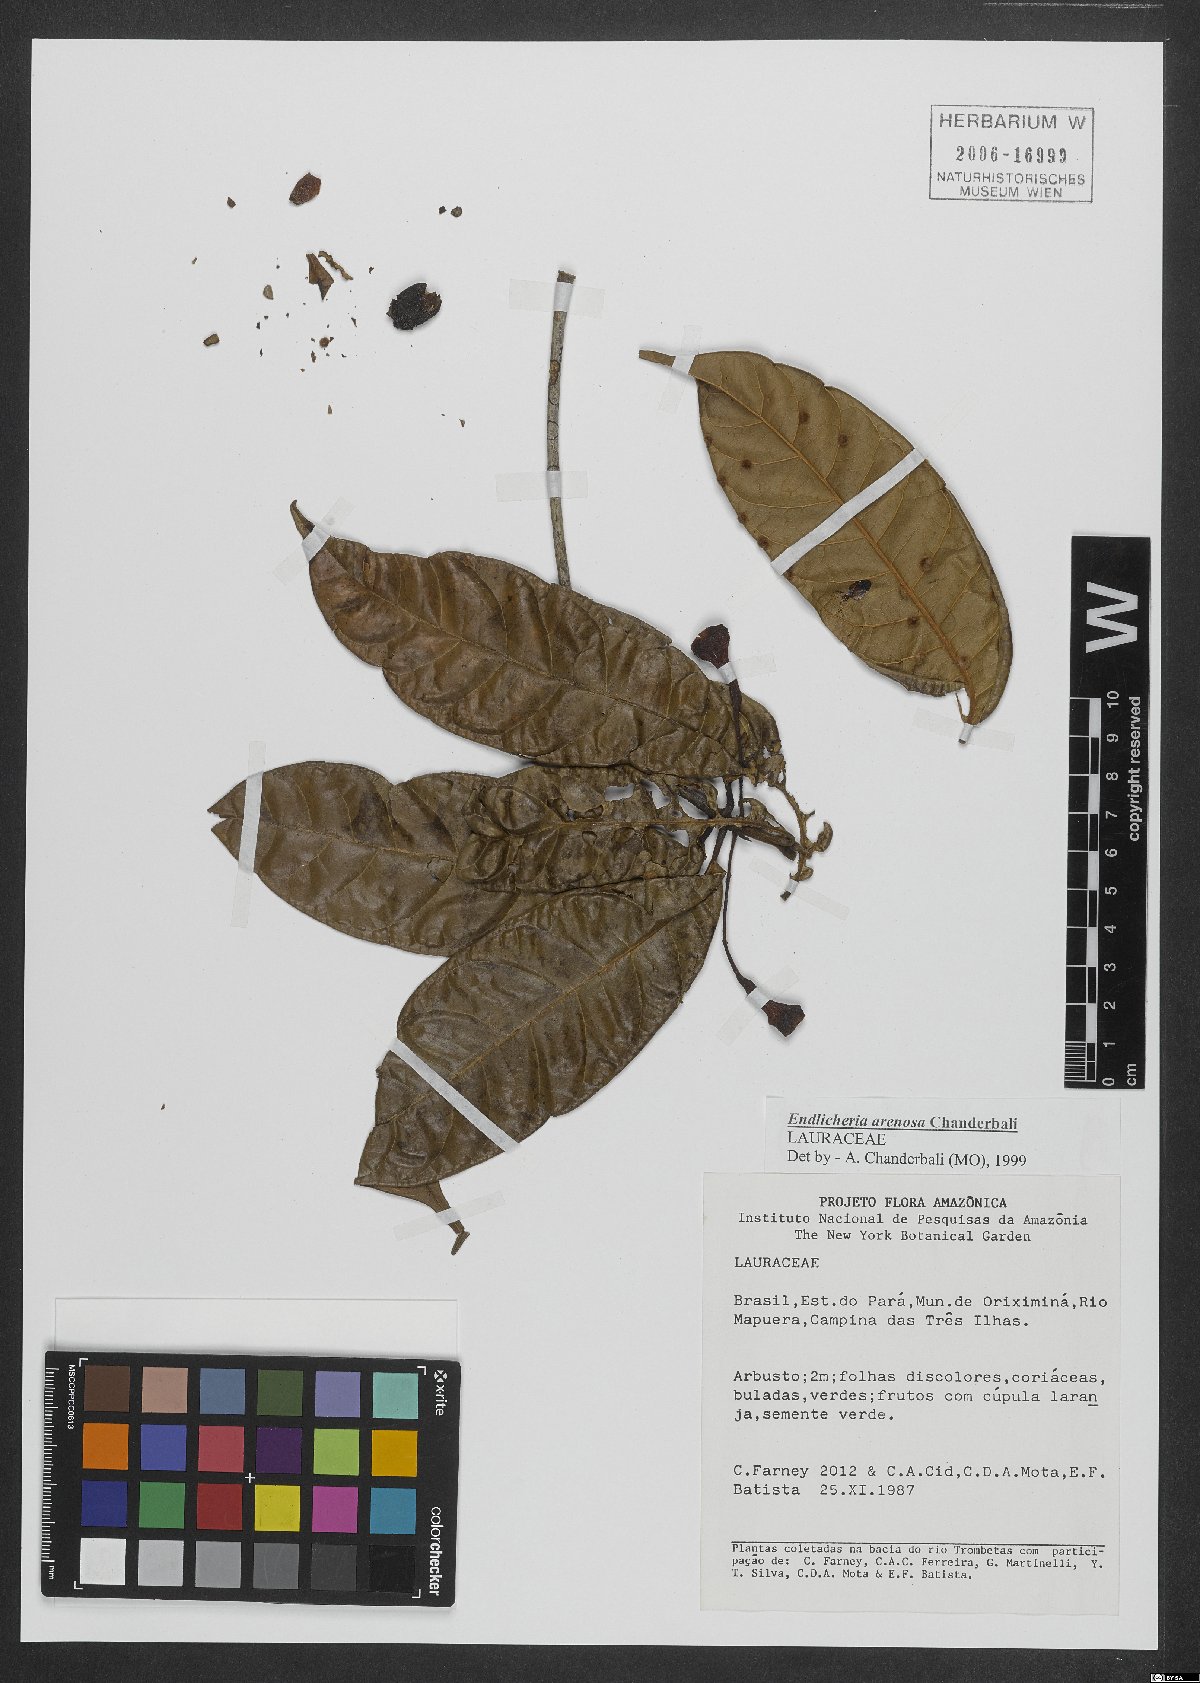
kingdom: Plantae
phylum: Tracheophyta
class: Magnoliopsida
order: Laurales
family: Lauraceae
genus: Endlicheria
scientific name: Endlicheria arenosa
